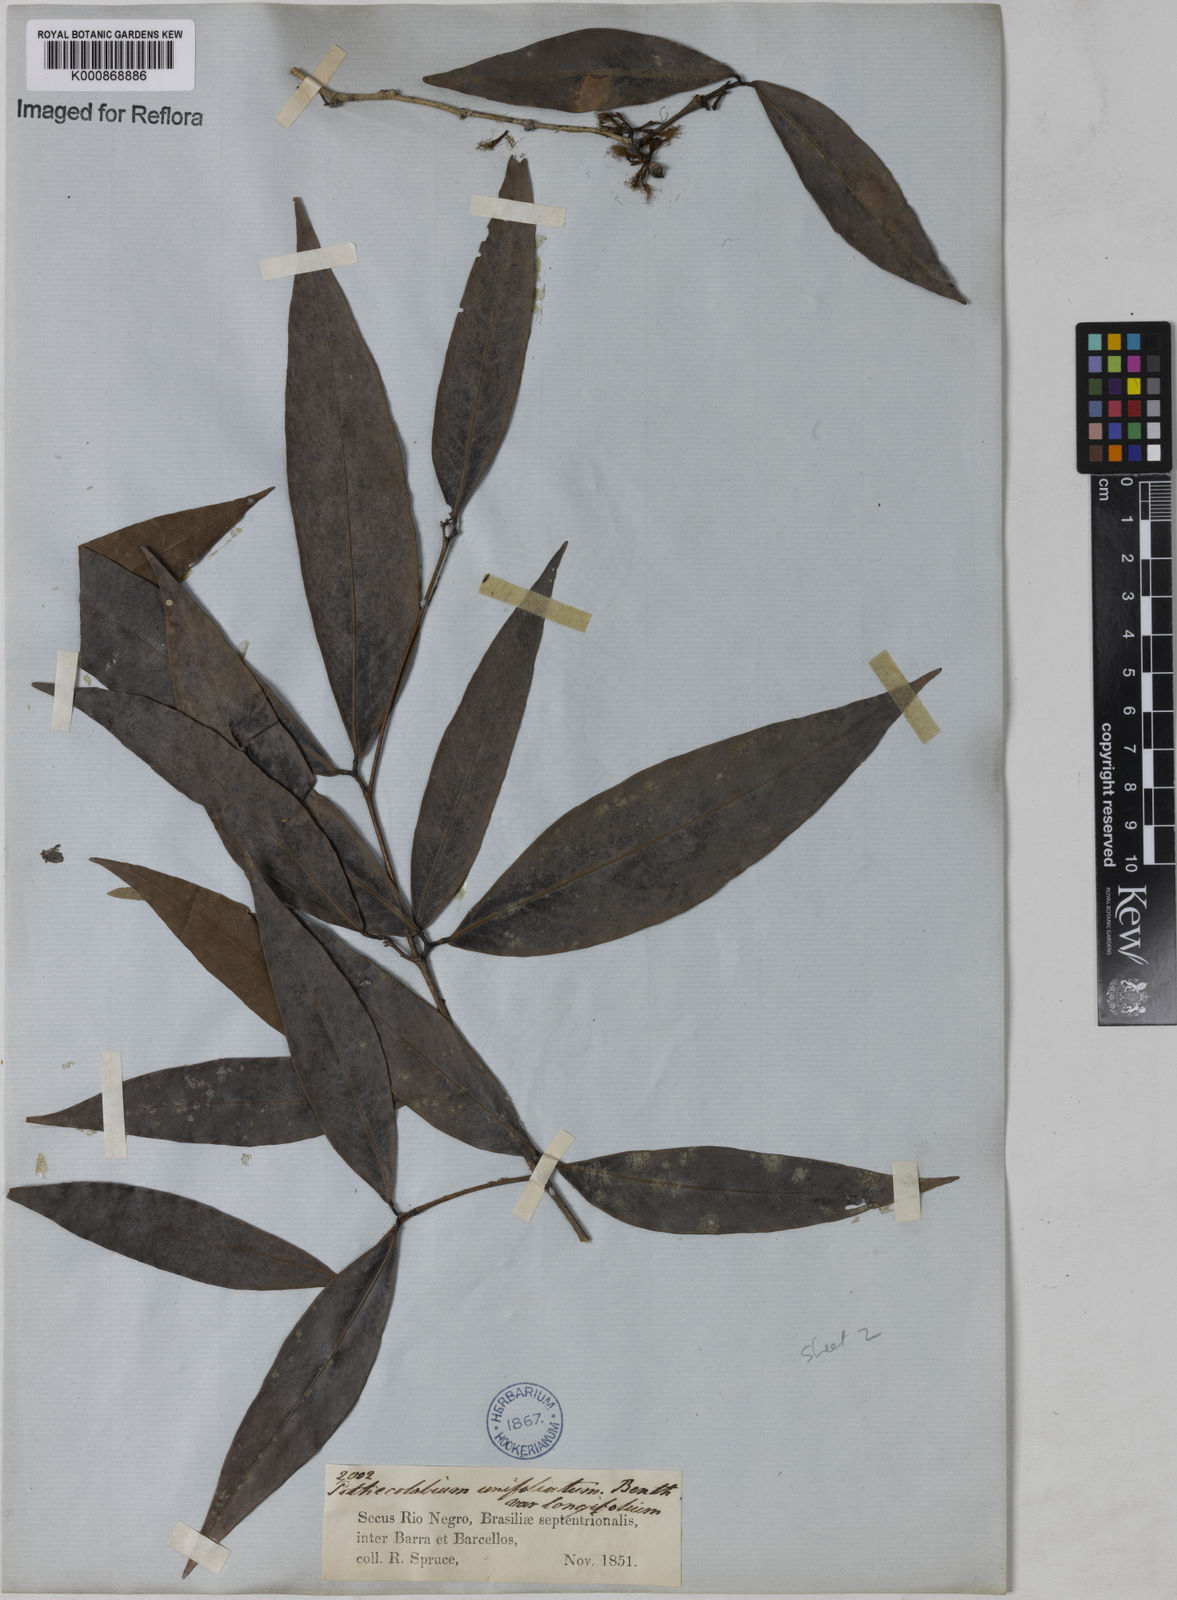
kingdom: Plantae
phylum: Tracheophyta
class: Magnoliopsida
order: Fabales
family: Fabaceae
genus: Zygia
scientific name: Zygia unifoliolata
